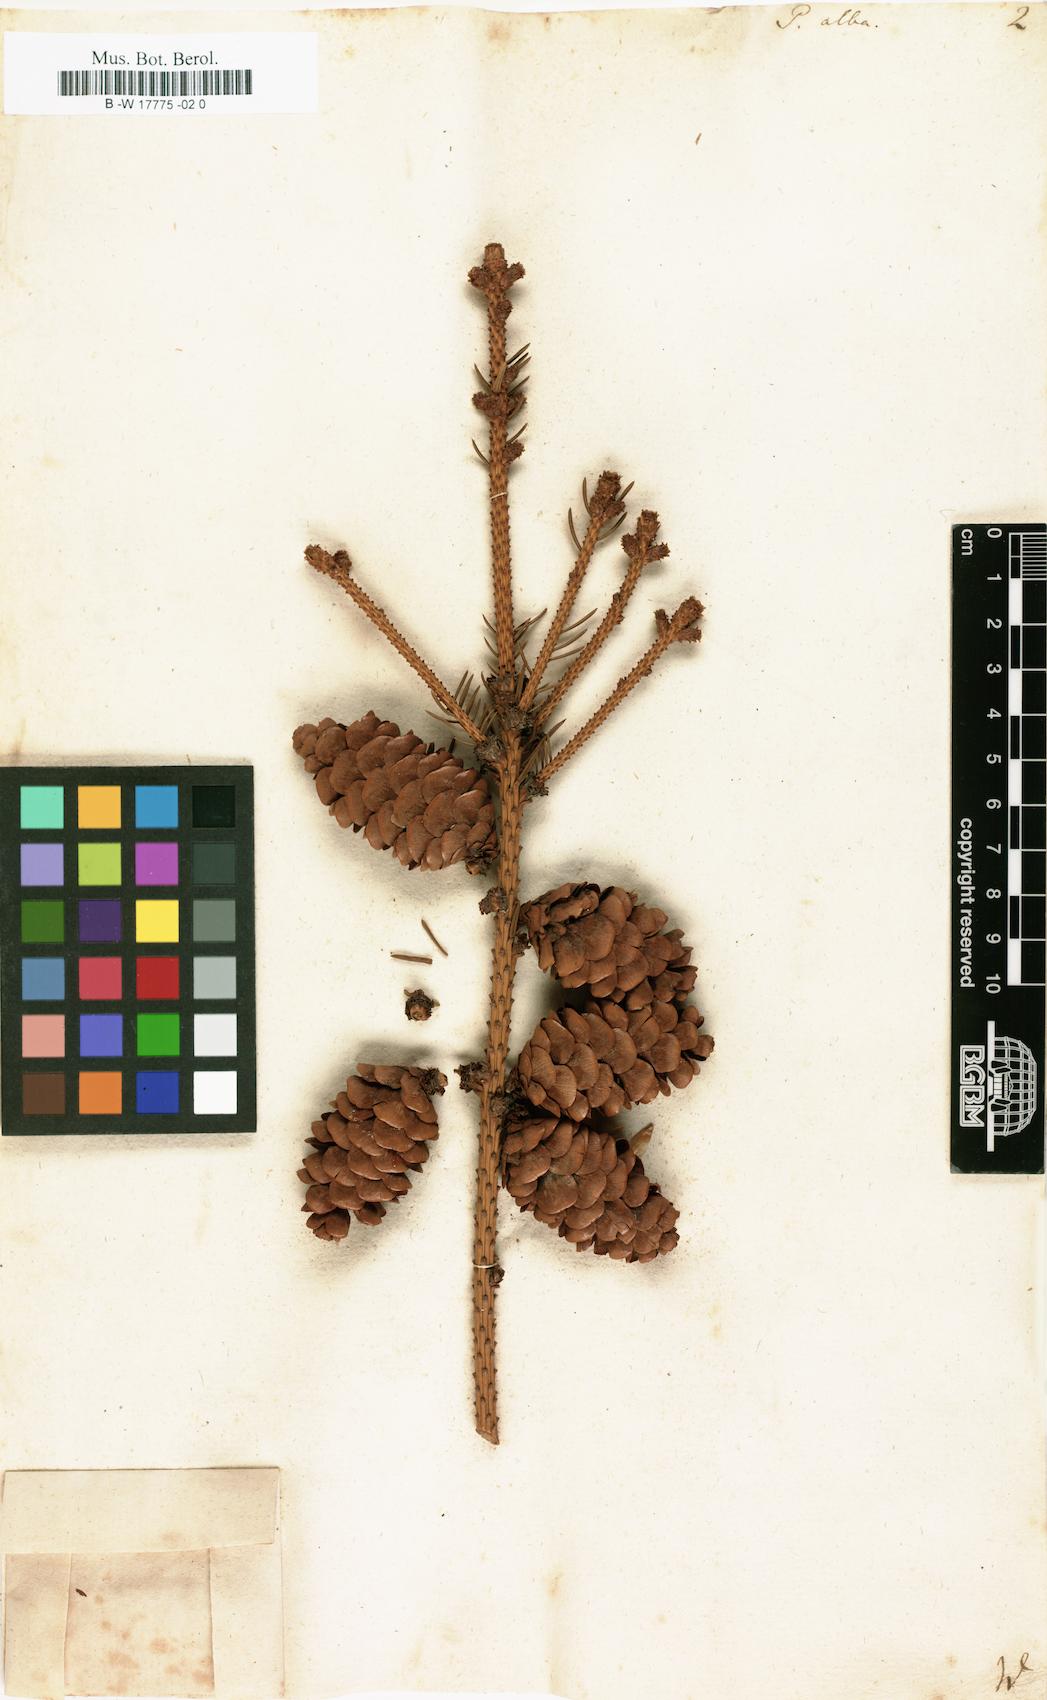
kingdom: Plantae
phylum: Tracheophyta
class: Pinopsida
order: Pinales
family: Pinaceae
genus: Picea
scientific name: Picea glauca
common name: White spruce
